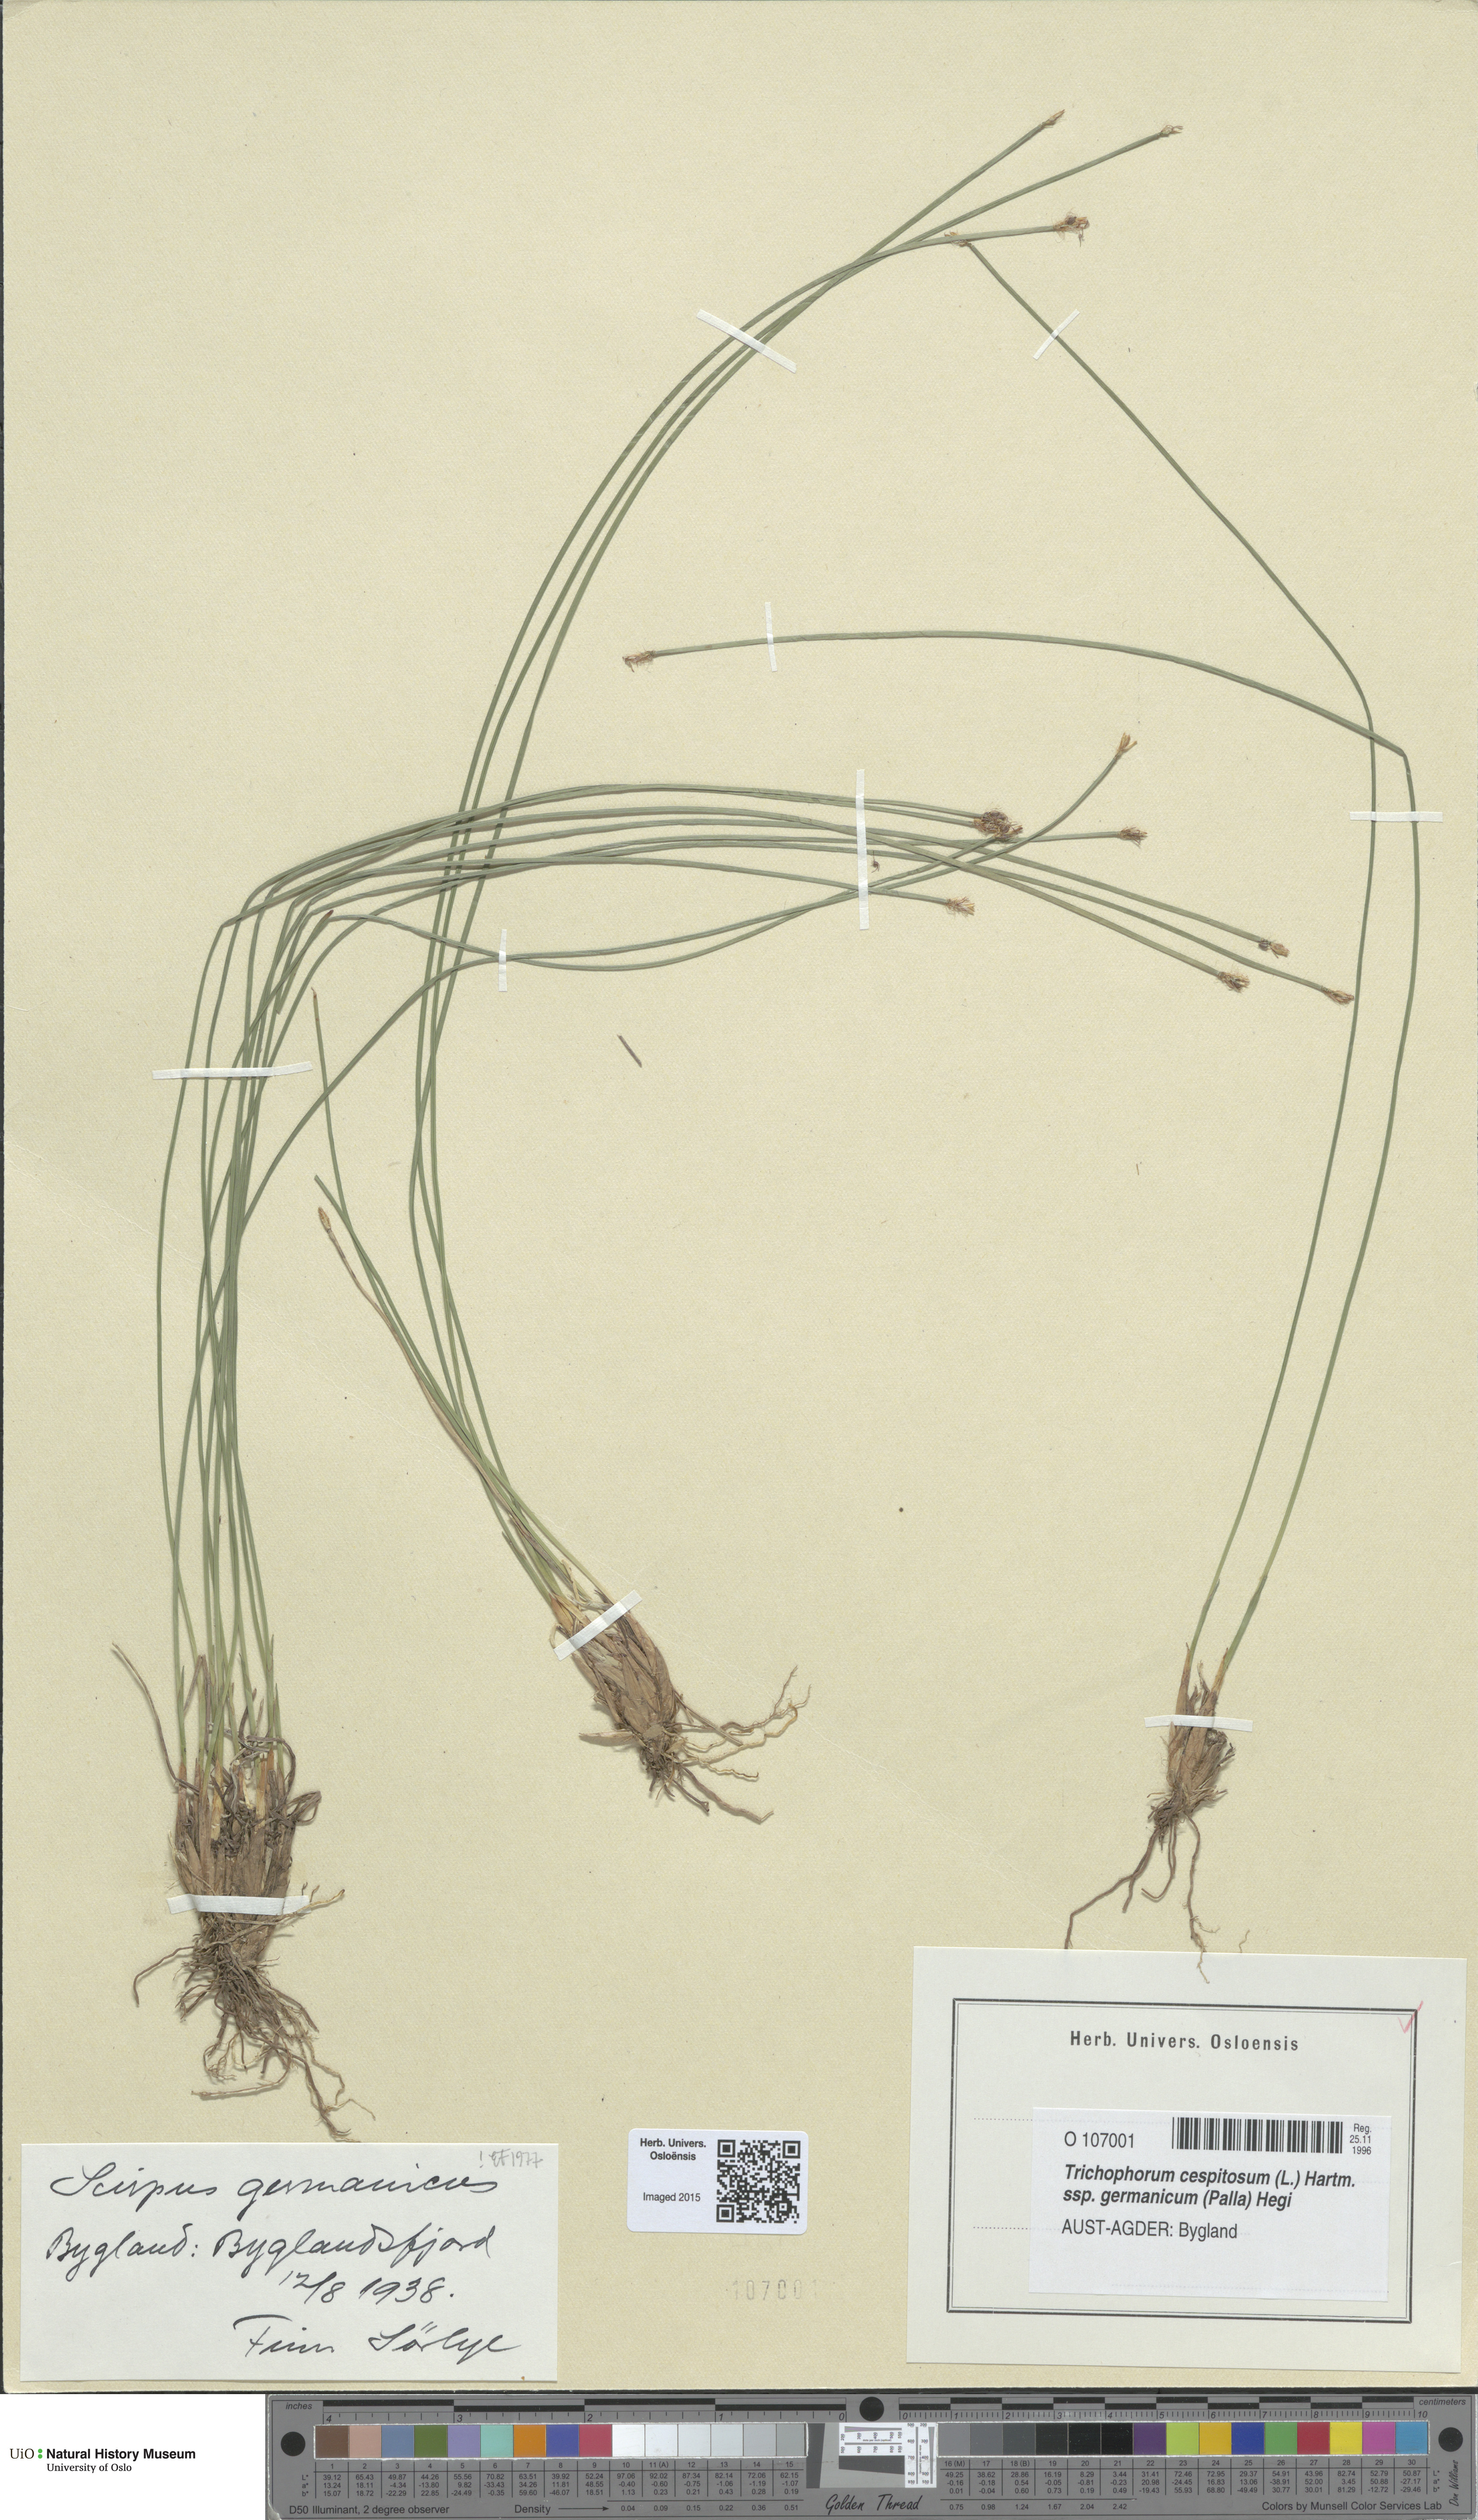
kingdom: Plantae
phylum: Tracheophyta
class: Liliopsida
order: Poales
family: Cyperaceae
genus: Trichophorum
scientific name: Trichophorum cespitosum
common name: Cespitose bulrush
